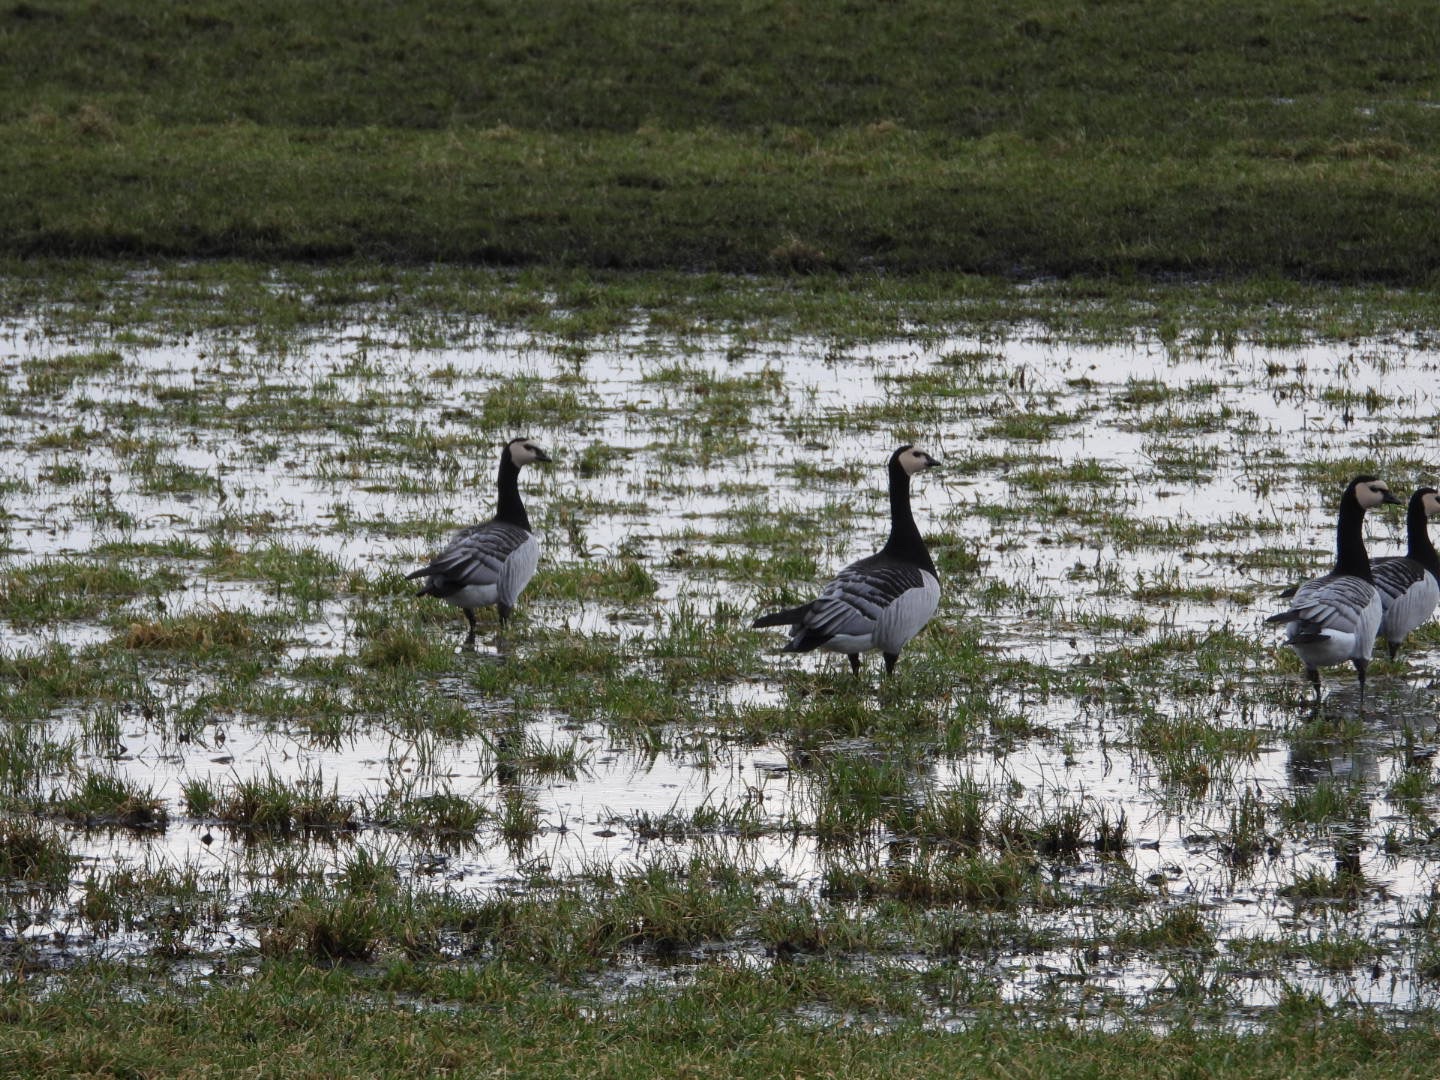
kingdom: Animalia
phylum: Chordata
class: Aves
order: Anseriformes
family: Anatidae
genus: Branta
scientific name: Branta leucopsis
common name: Bramgås
